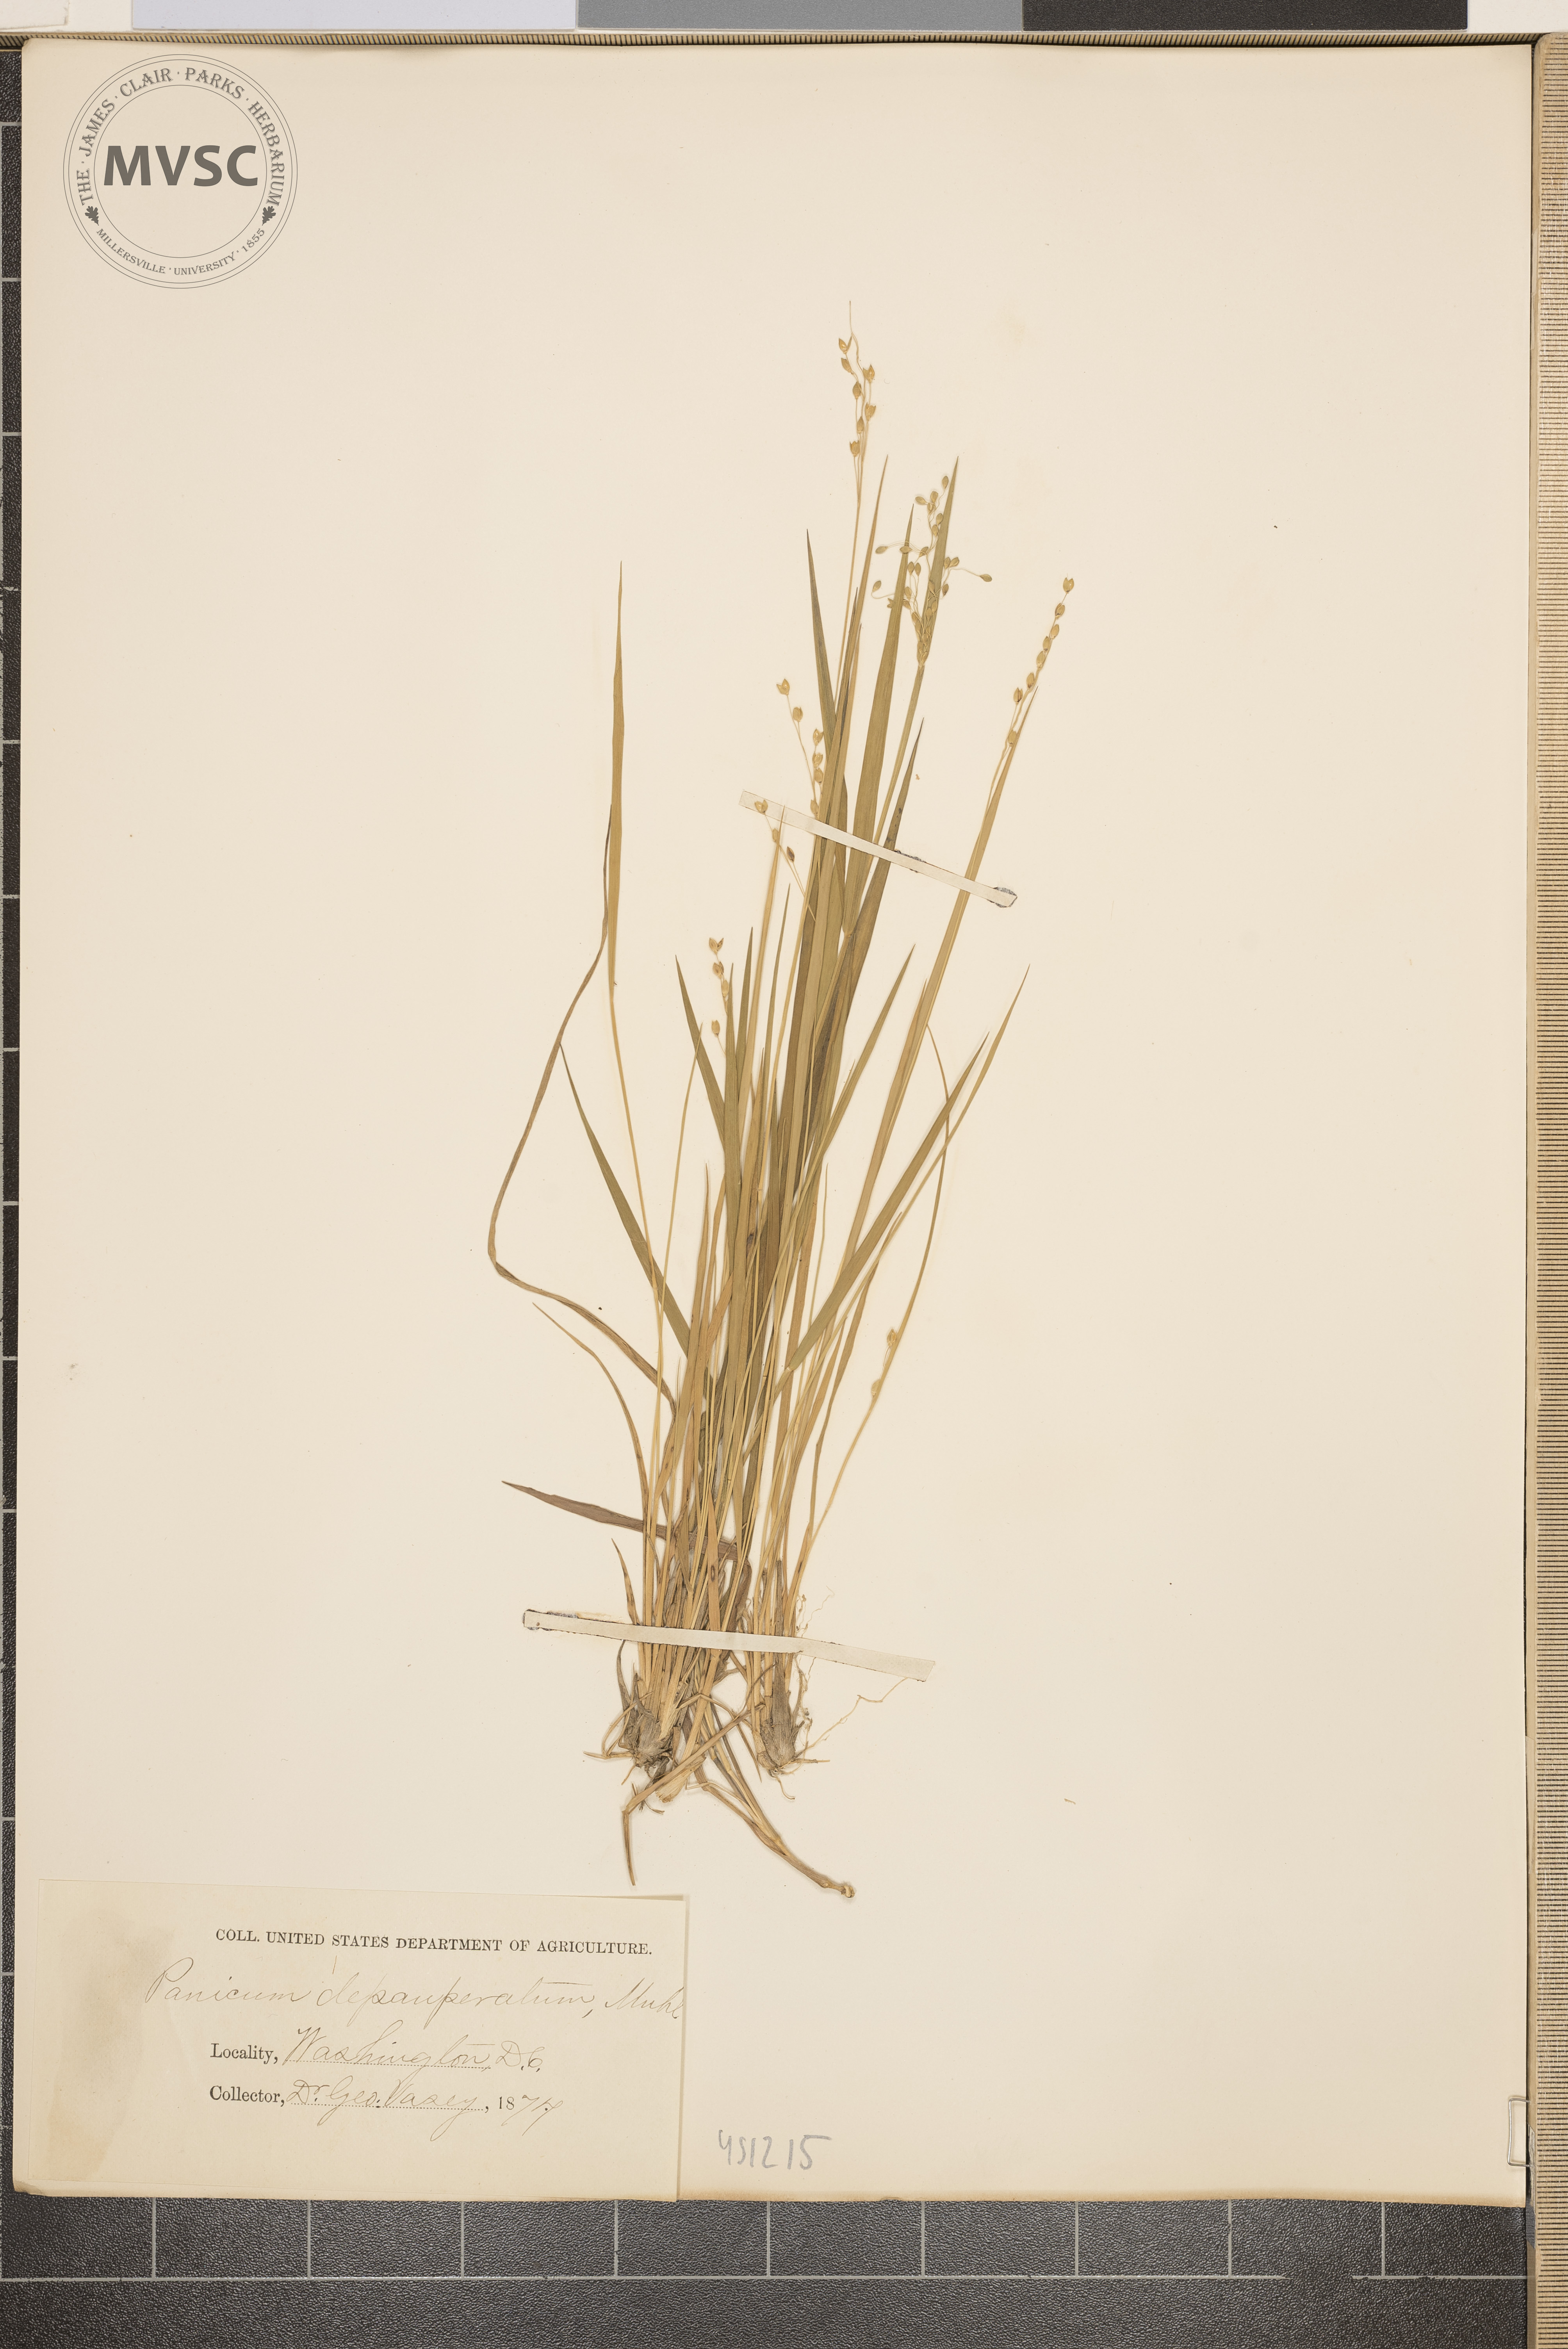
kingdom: Plantae
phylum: Tracheophyta
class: Liliopsida
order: Poales
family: Poaceae
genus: Dichanthelium
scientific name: Dichanthelium depauperatum
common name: Depauperate panicgrass
